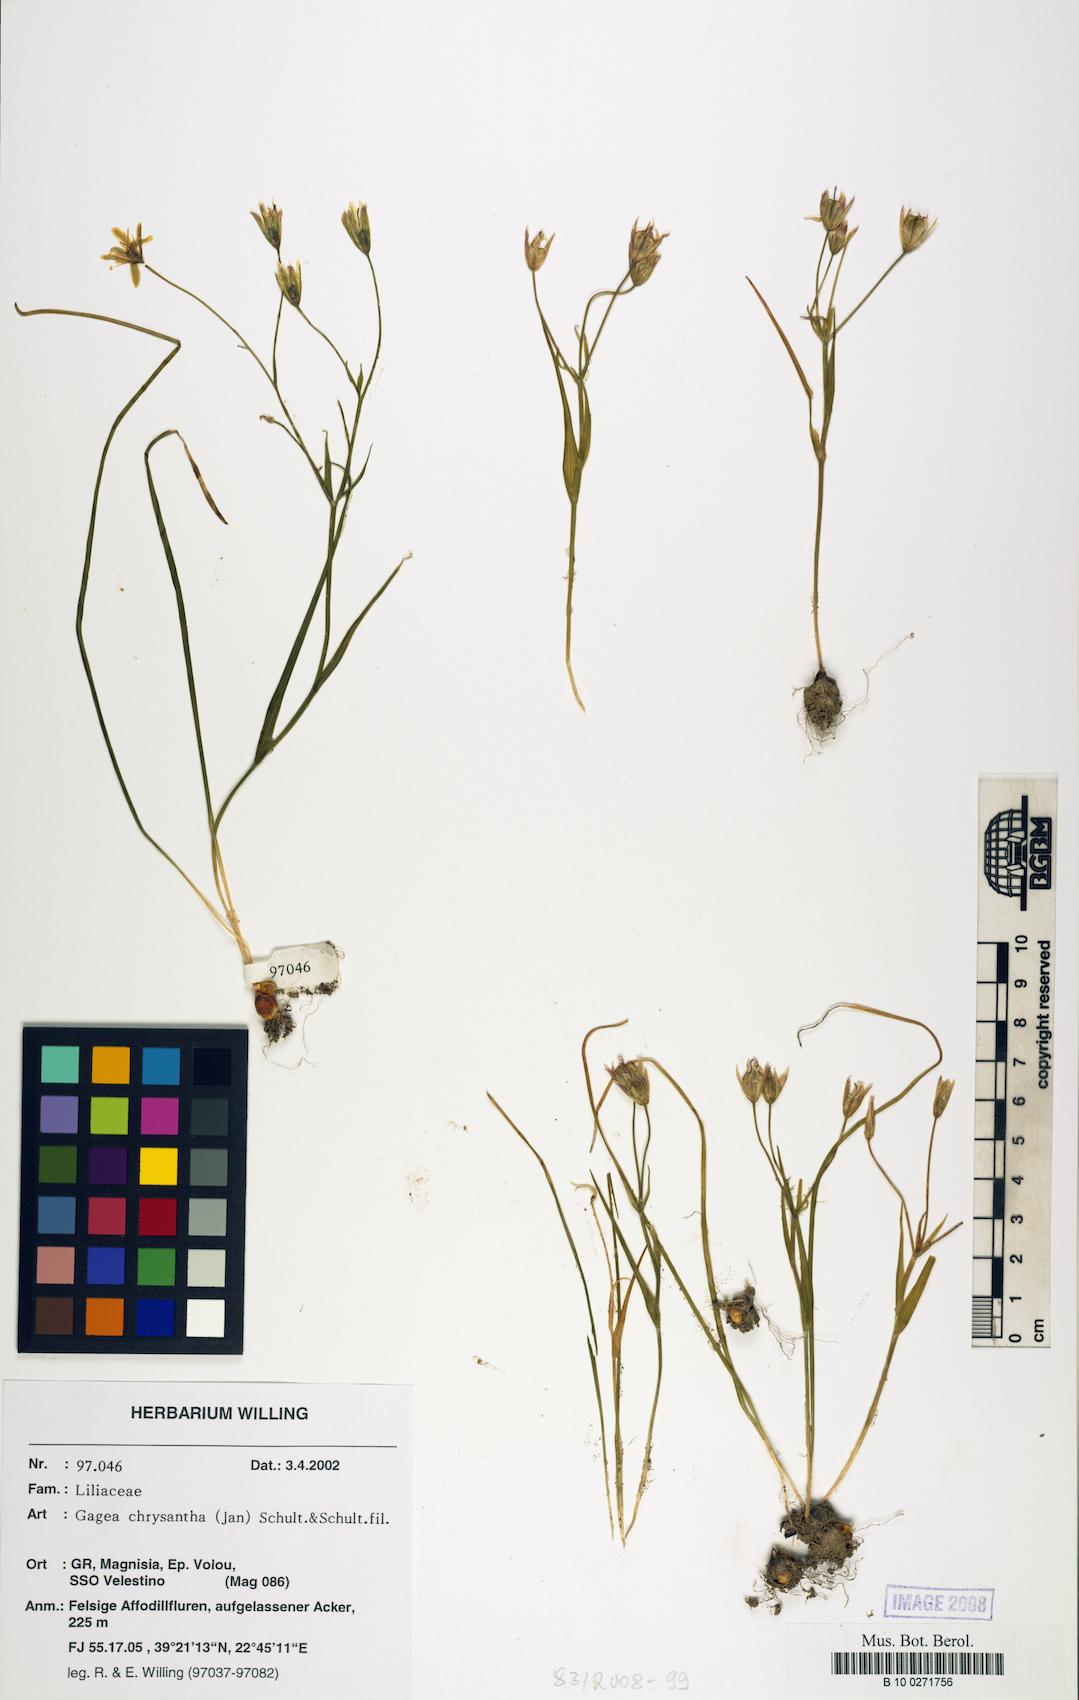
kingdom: Plantae
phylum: Tracheophyta
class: Liliopsida
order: Liliales
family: Liliaceae
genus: Gagea
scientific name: Gagea chrysantha
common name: Golden gagea
